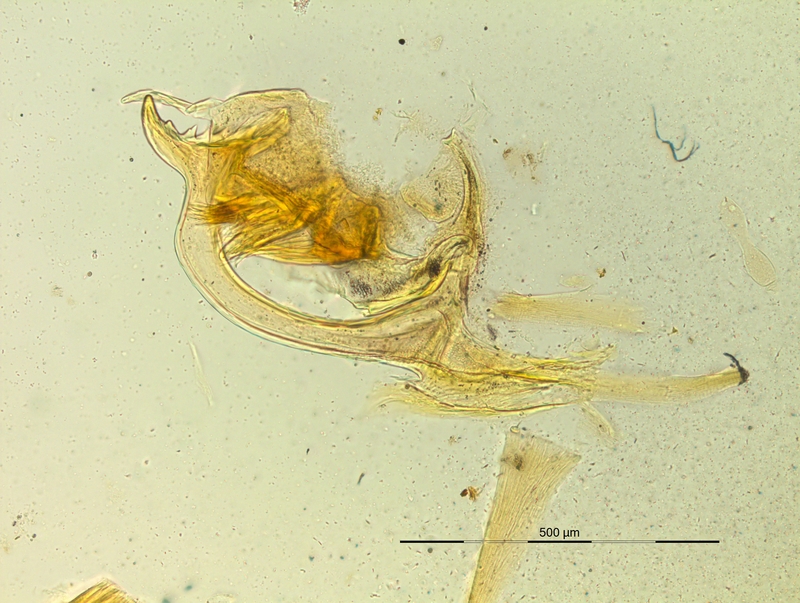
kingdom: Animalia
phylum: Arthropoda
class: Diplopoda
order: Chordeumatida
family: Craspedosomatidae
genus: Pyrgocyphosoma
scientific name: Pyrgocyphosoma titianum
